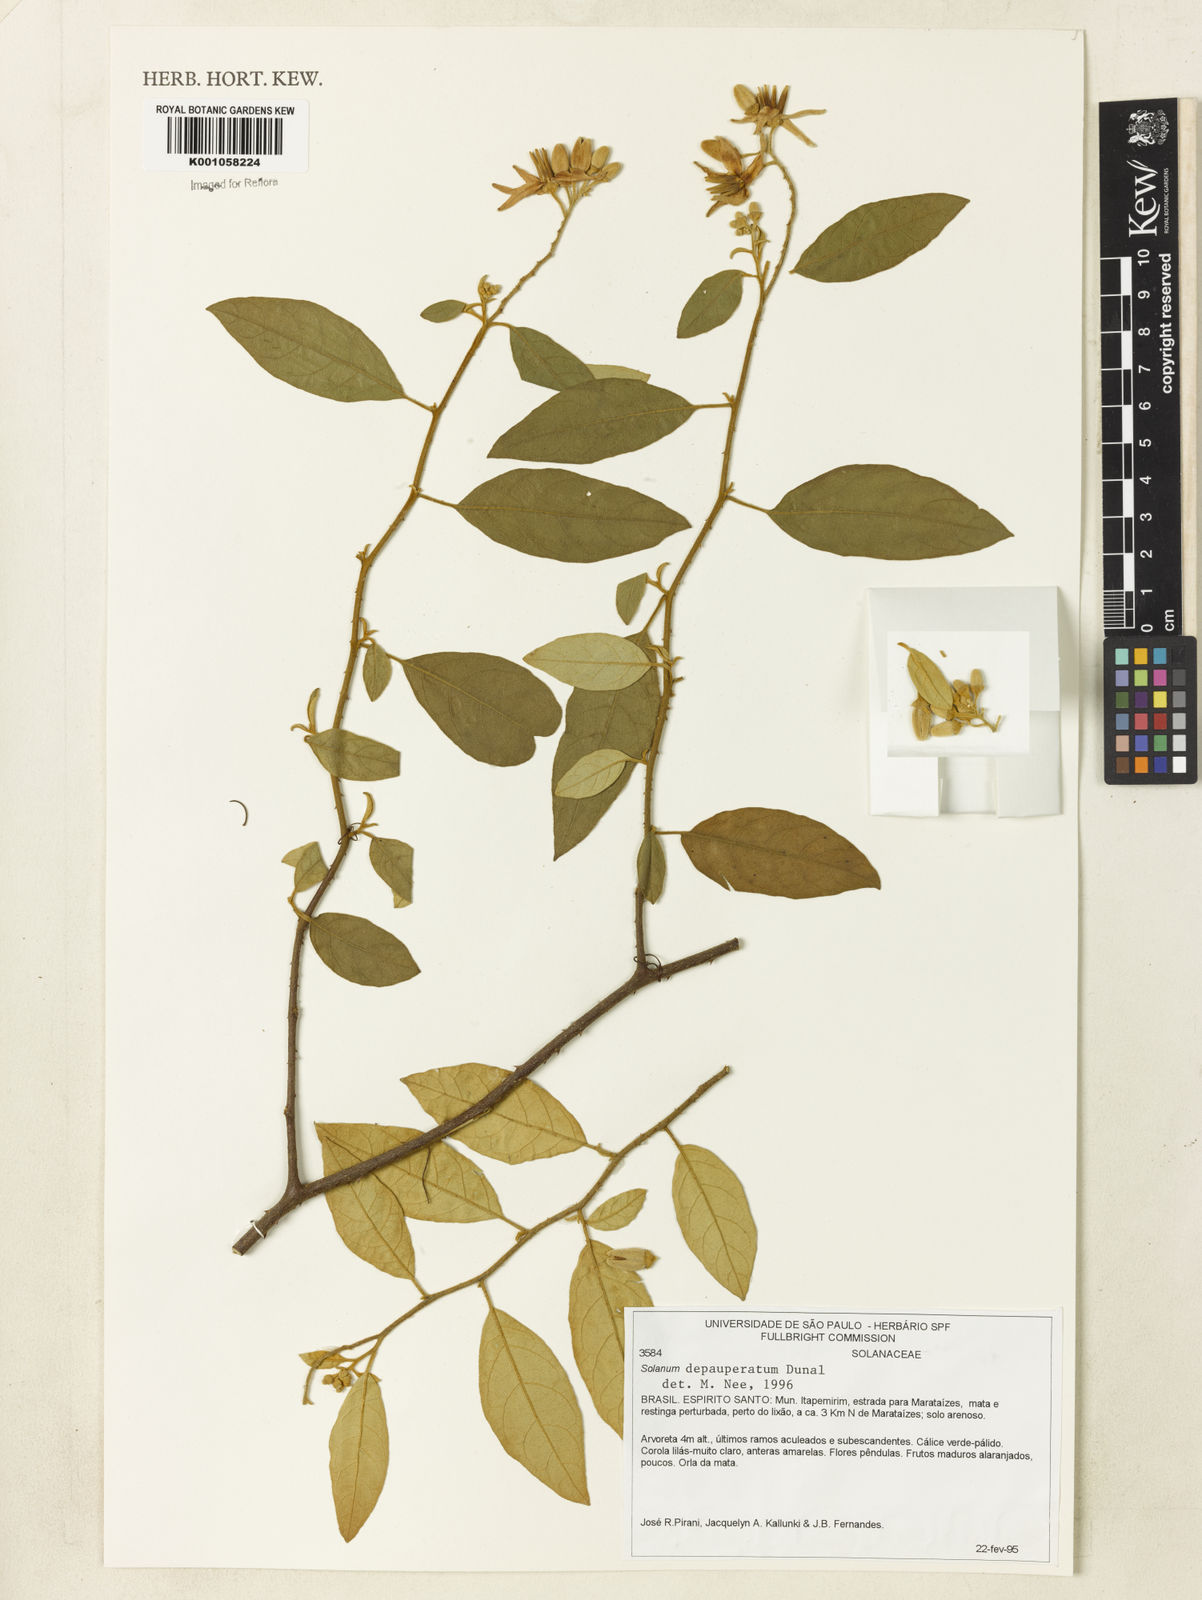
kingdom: Plantae
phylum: Tracheophyta
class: Magnoliopsida
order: Solanales
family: Solanaceae
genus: Solanum
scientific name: Solanum depauperatum
